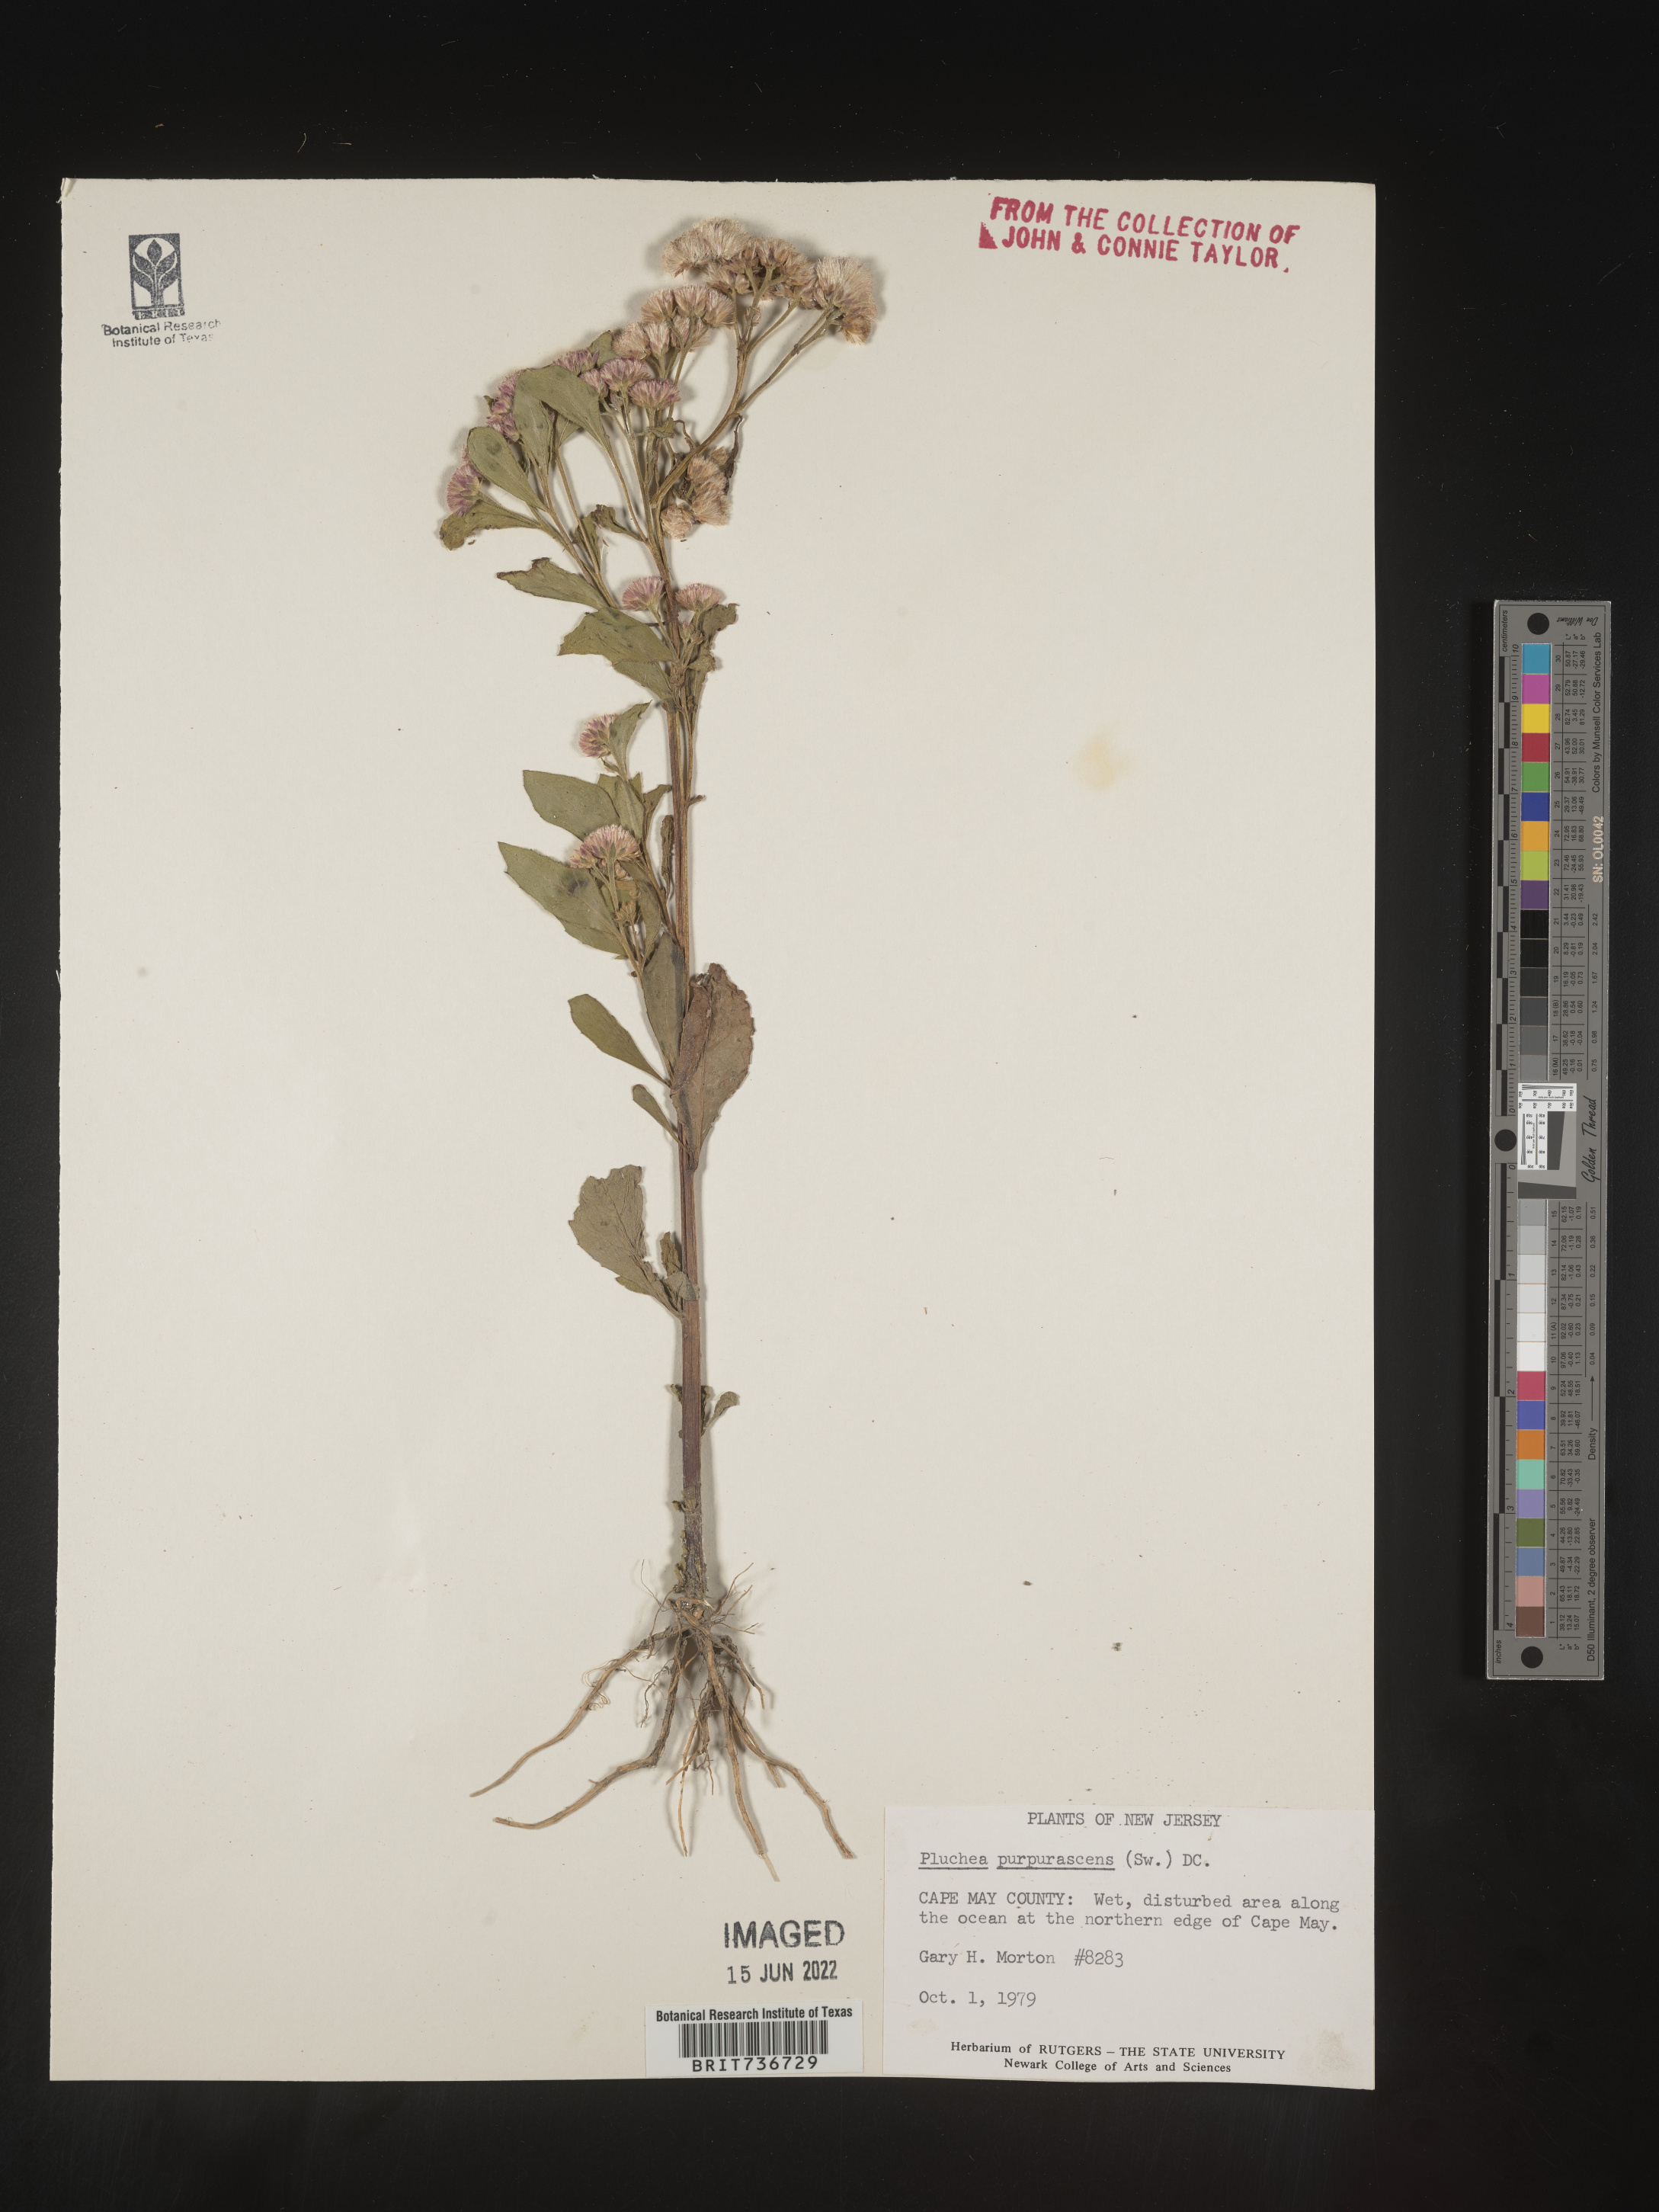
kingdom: Plantae
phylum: Tracheophyta
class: Magnoliopsida
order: Asterales
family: Asteraceae
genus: Pluchea
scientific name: Pluchea odorata
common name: Saltmarsh fleabane
